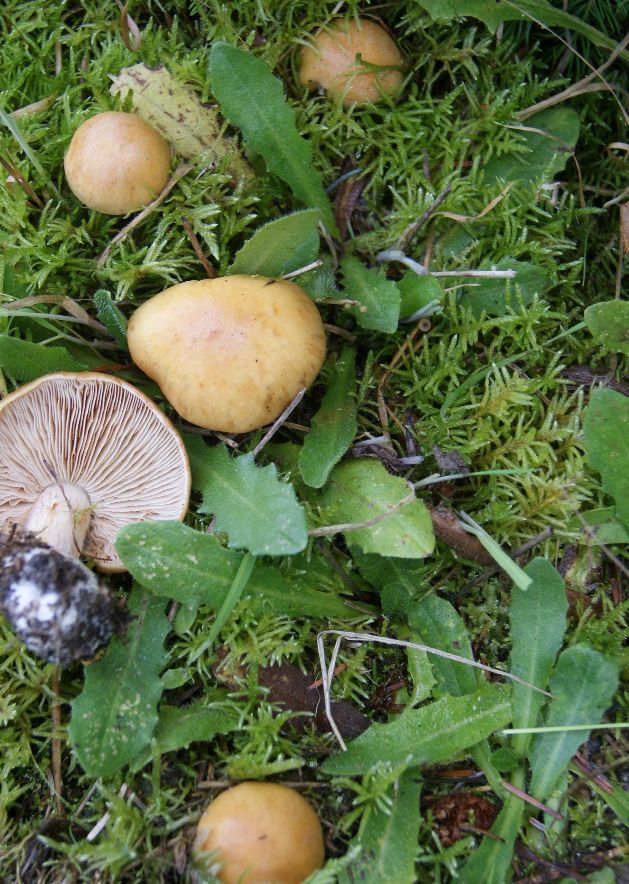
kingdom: Fungi
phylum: Basidiomycota
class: Agaricomycetes
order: Agaricales
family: Cortinariaceae
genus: Thaxterogaster
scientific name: Thaxterogaster multiformis
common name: honning-slørhat
